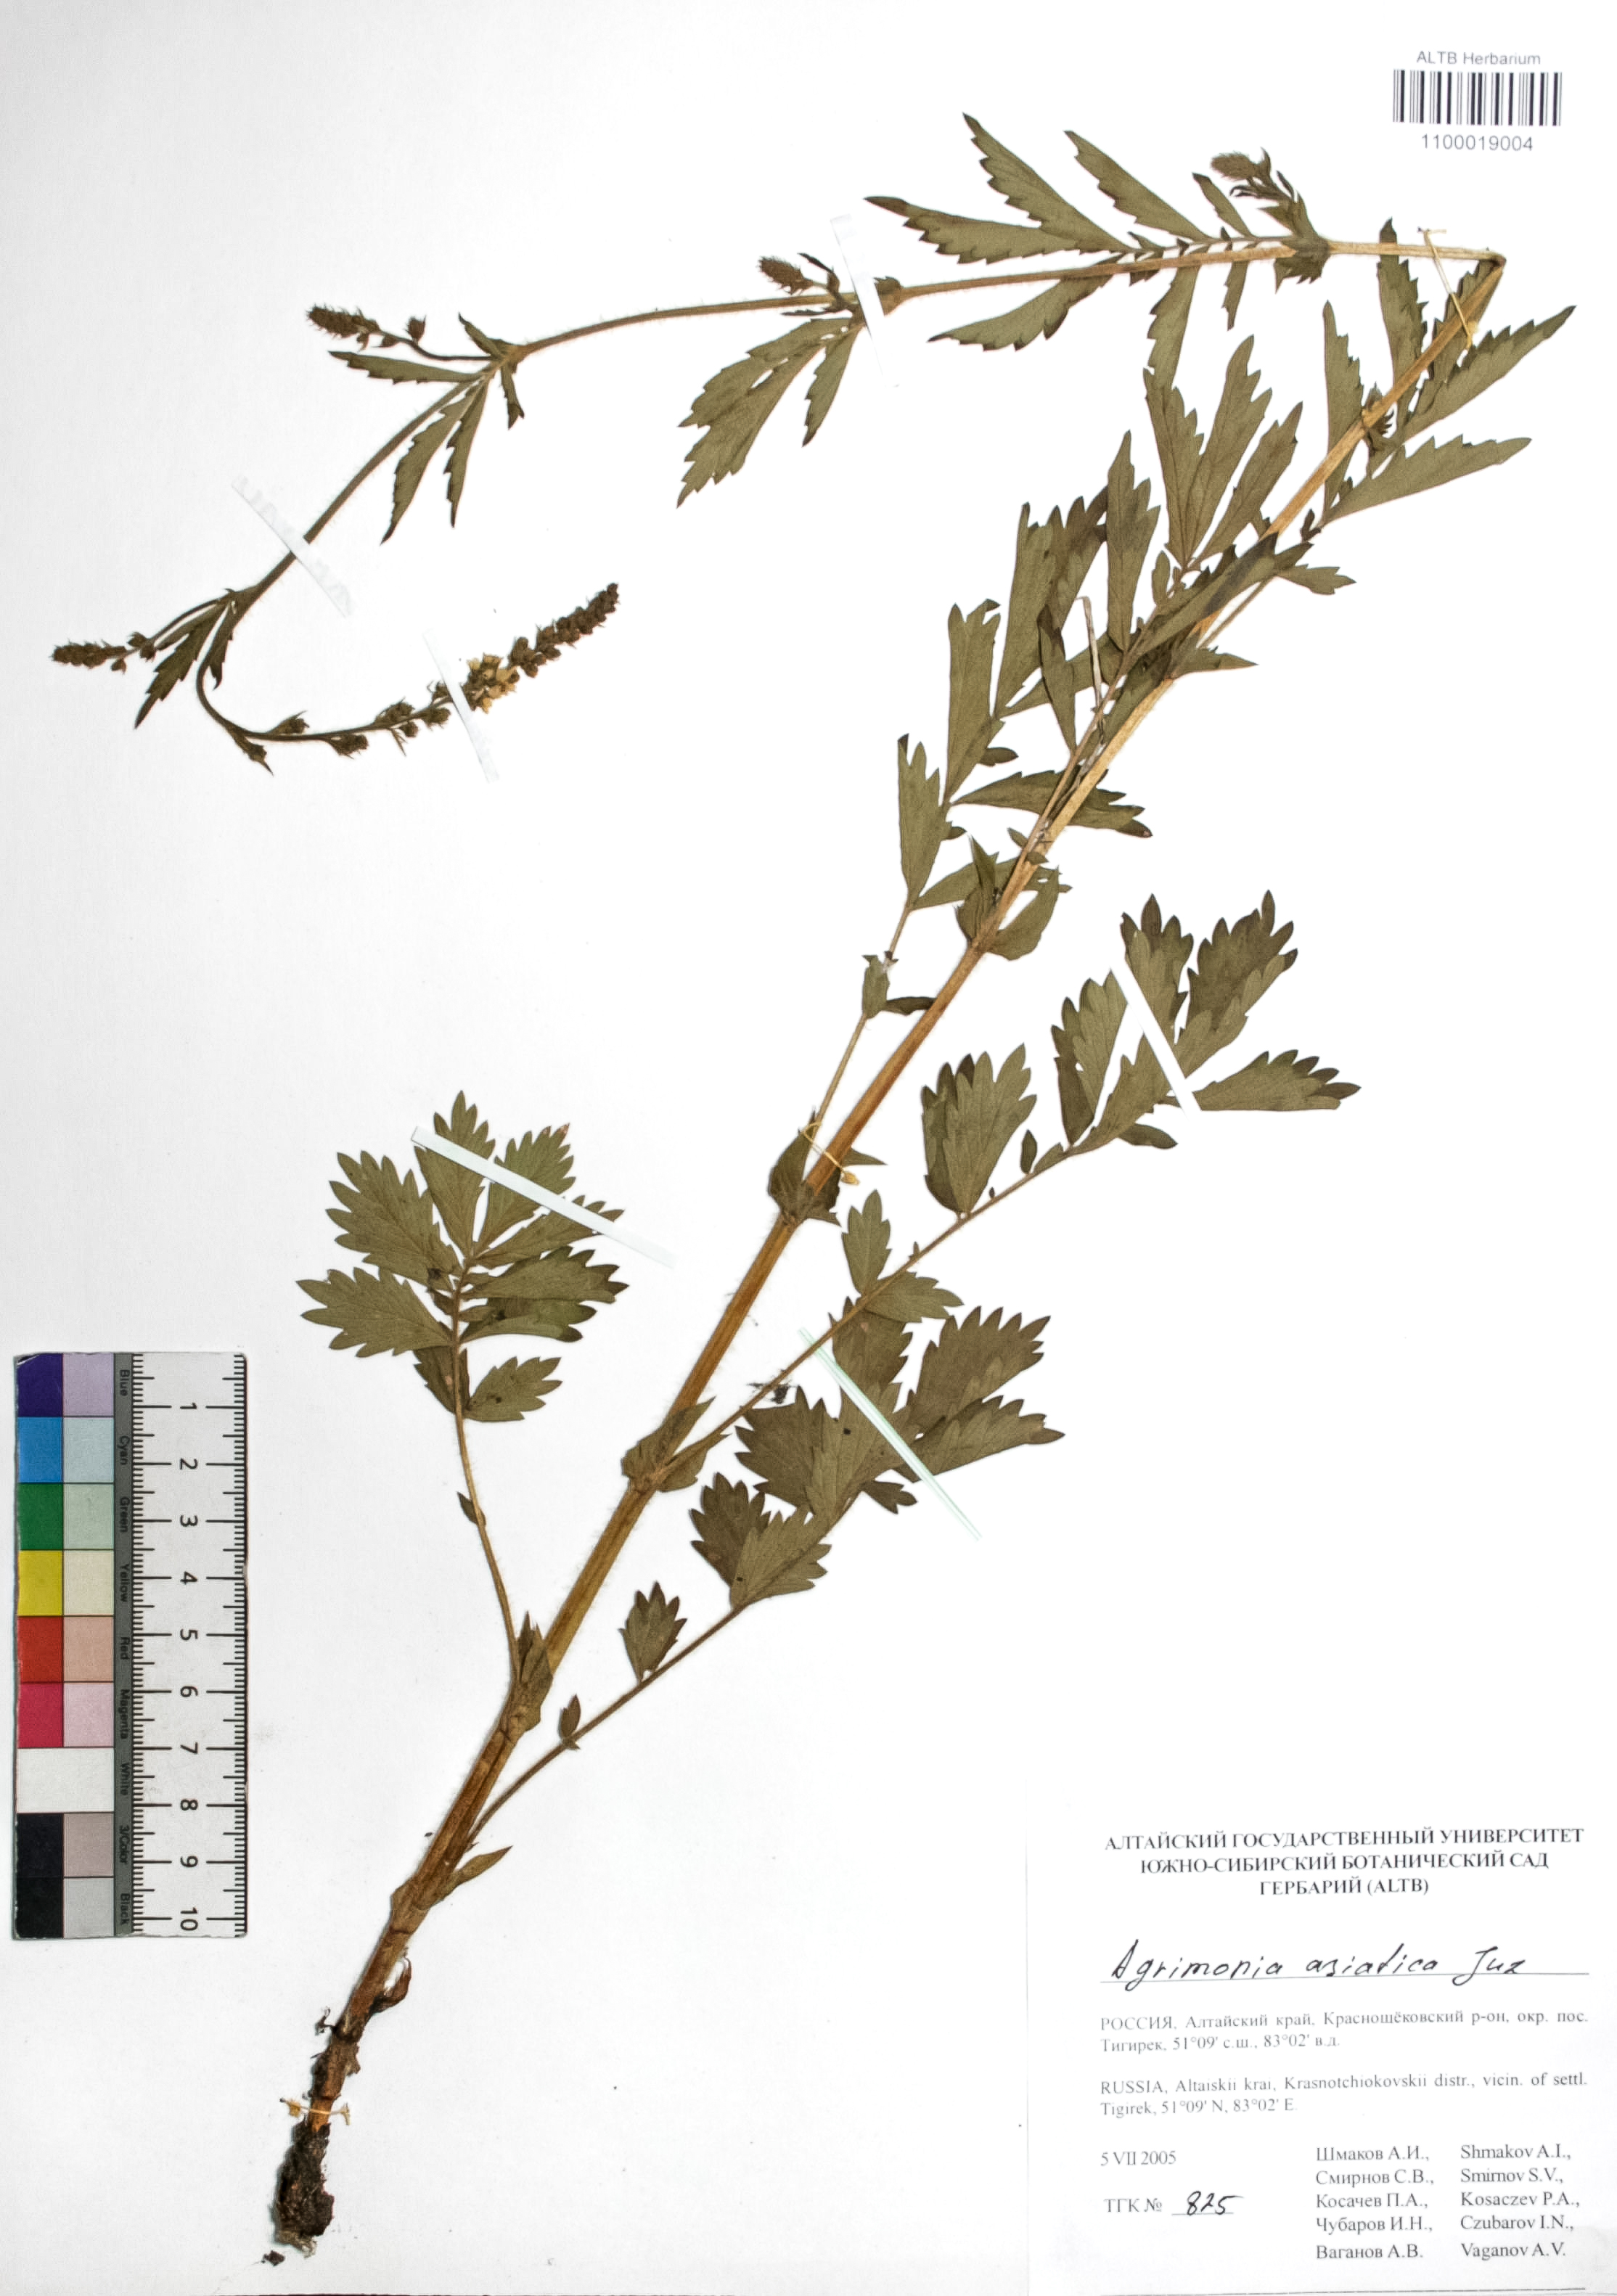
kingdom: Plantae
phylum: Tracheophyta
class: Magnoliopsida
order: Rosales
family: Rosaceae
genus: Agrimonia
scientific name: Agrimonia eupatoria
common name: Agrimony
